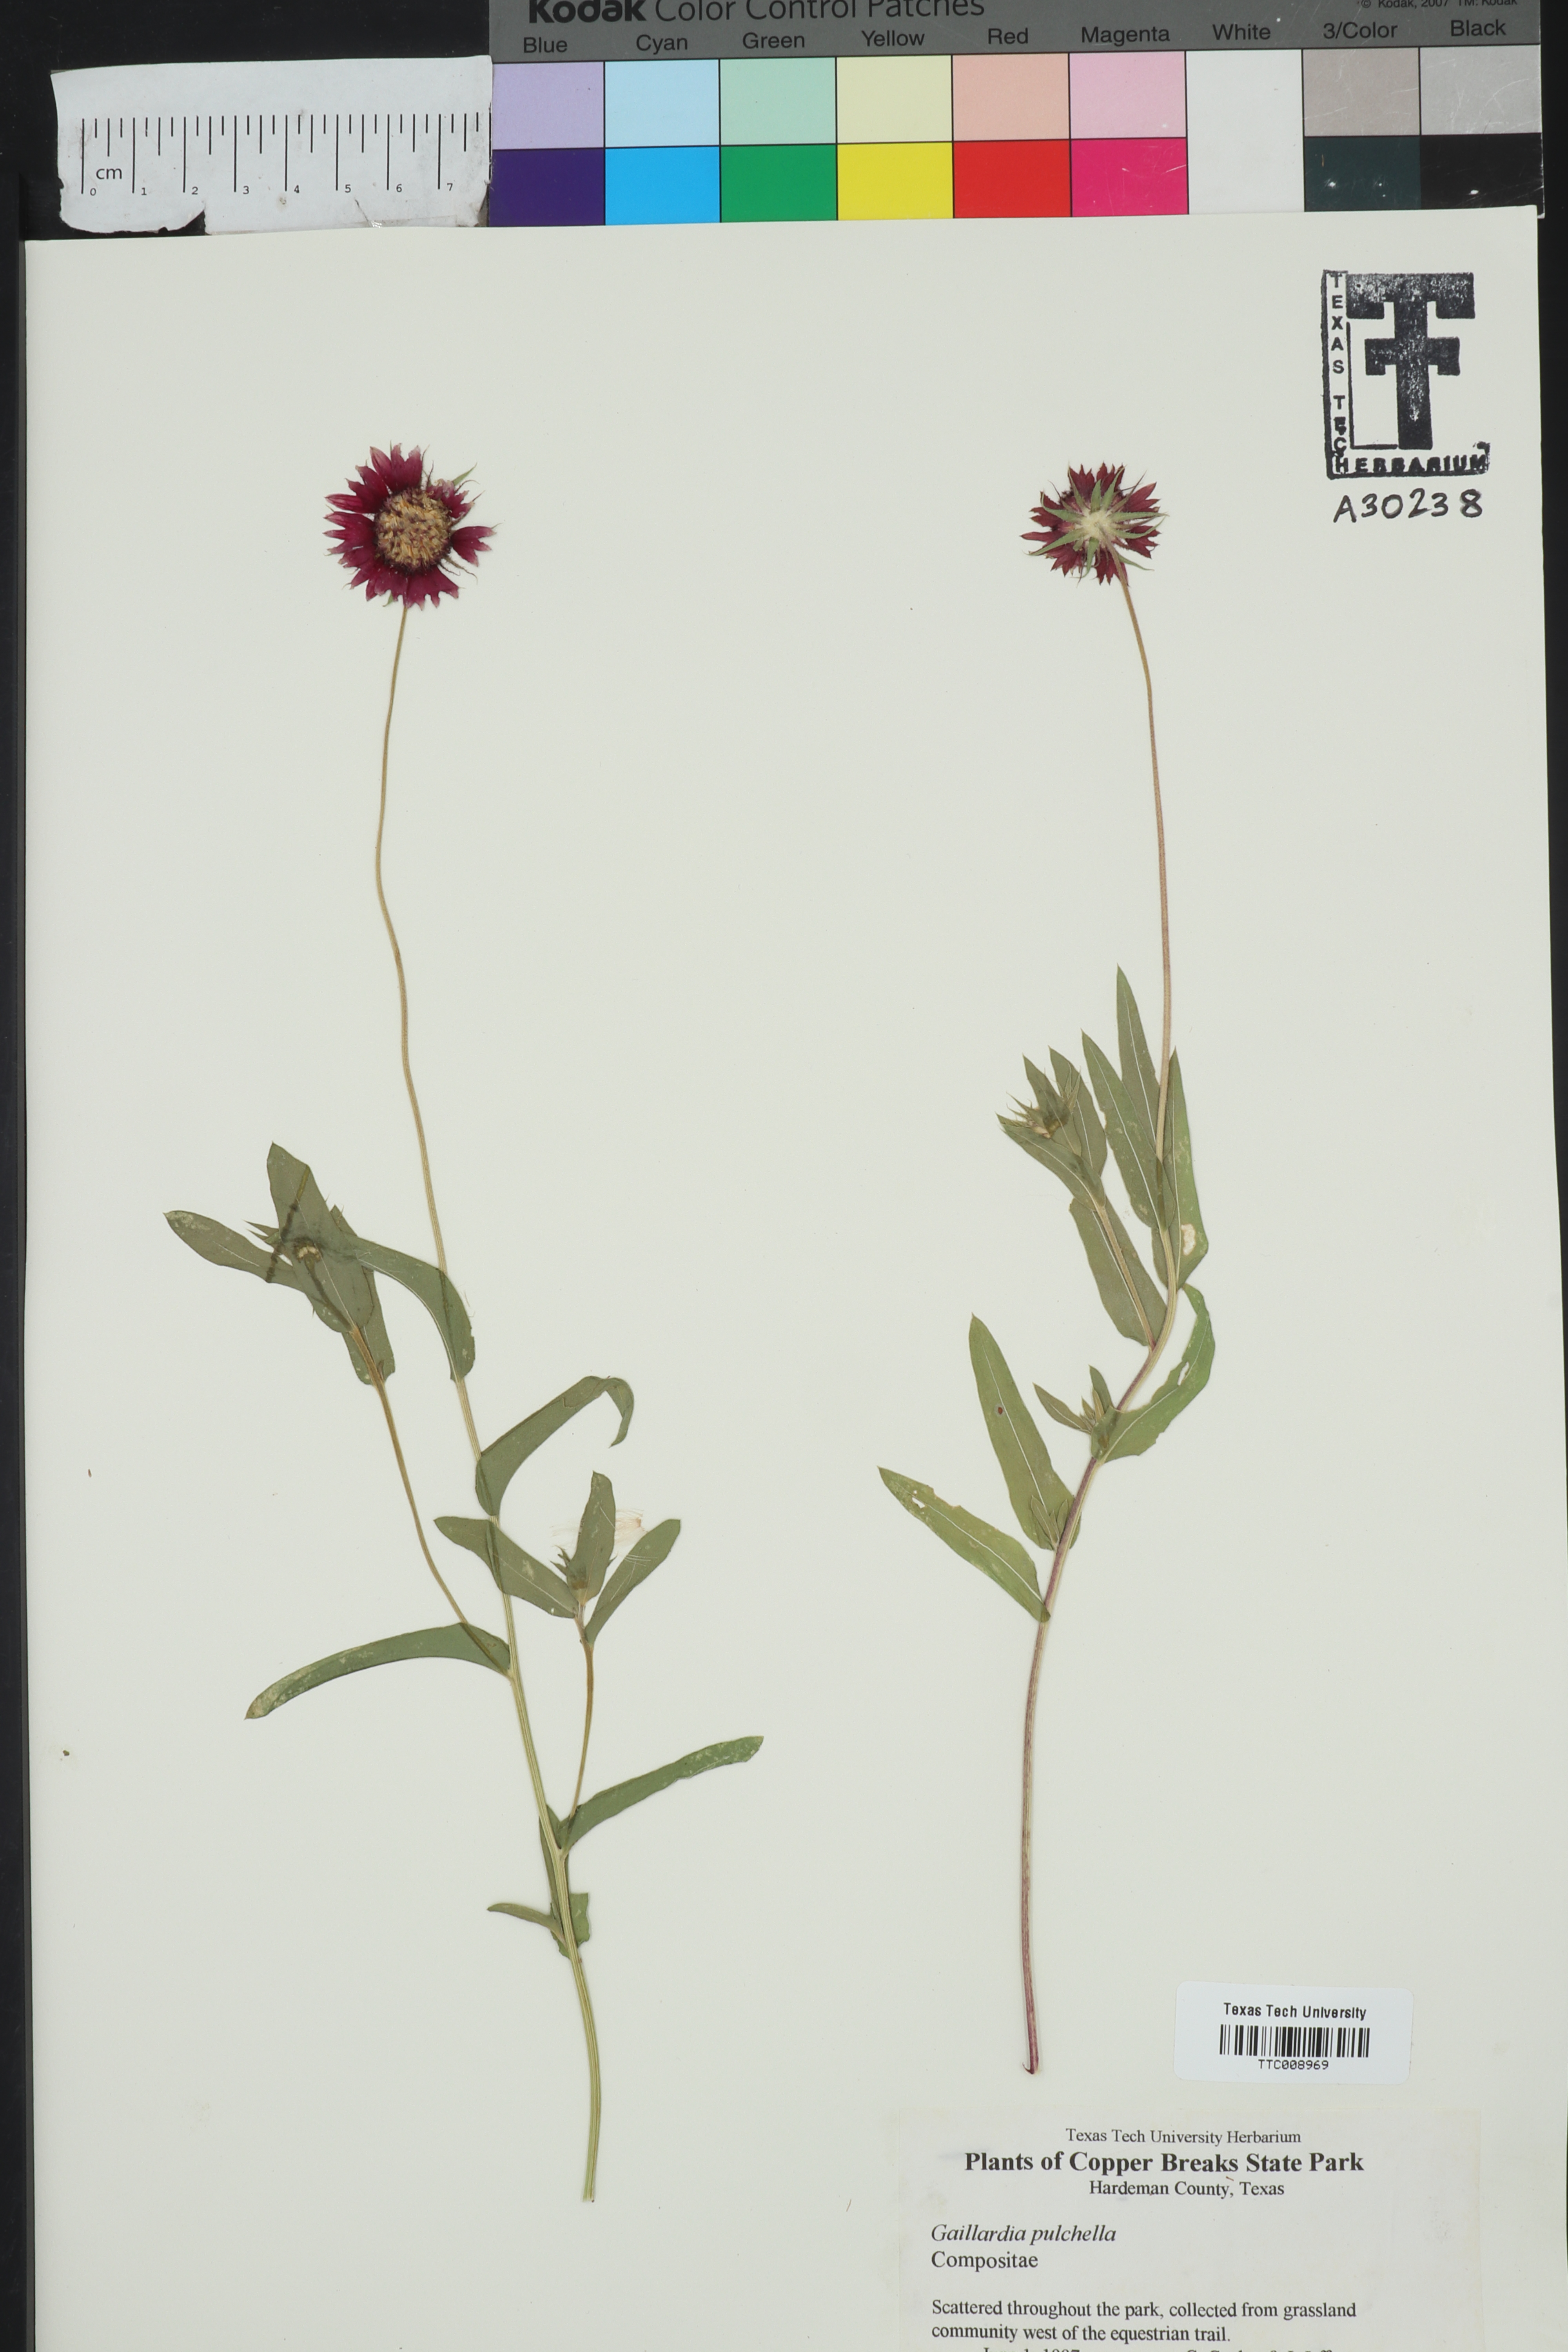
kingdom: Plantae
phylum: Tracheophyta
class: Magnoliopsida
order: Asterales
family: Asteraceae
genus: Gaillardia
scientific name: Gaillardia pulchella
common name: Firewheel
